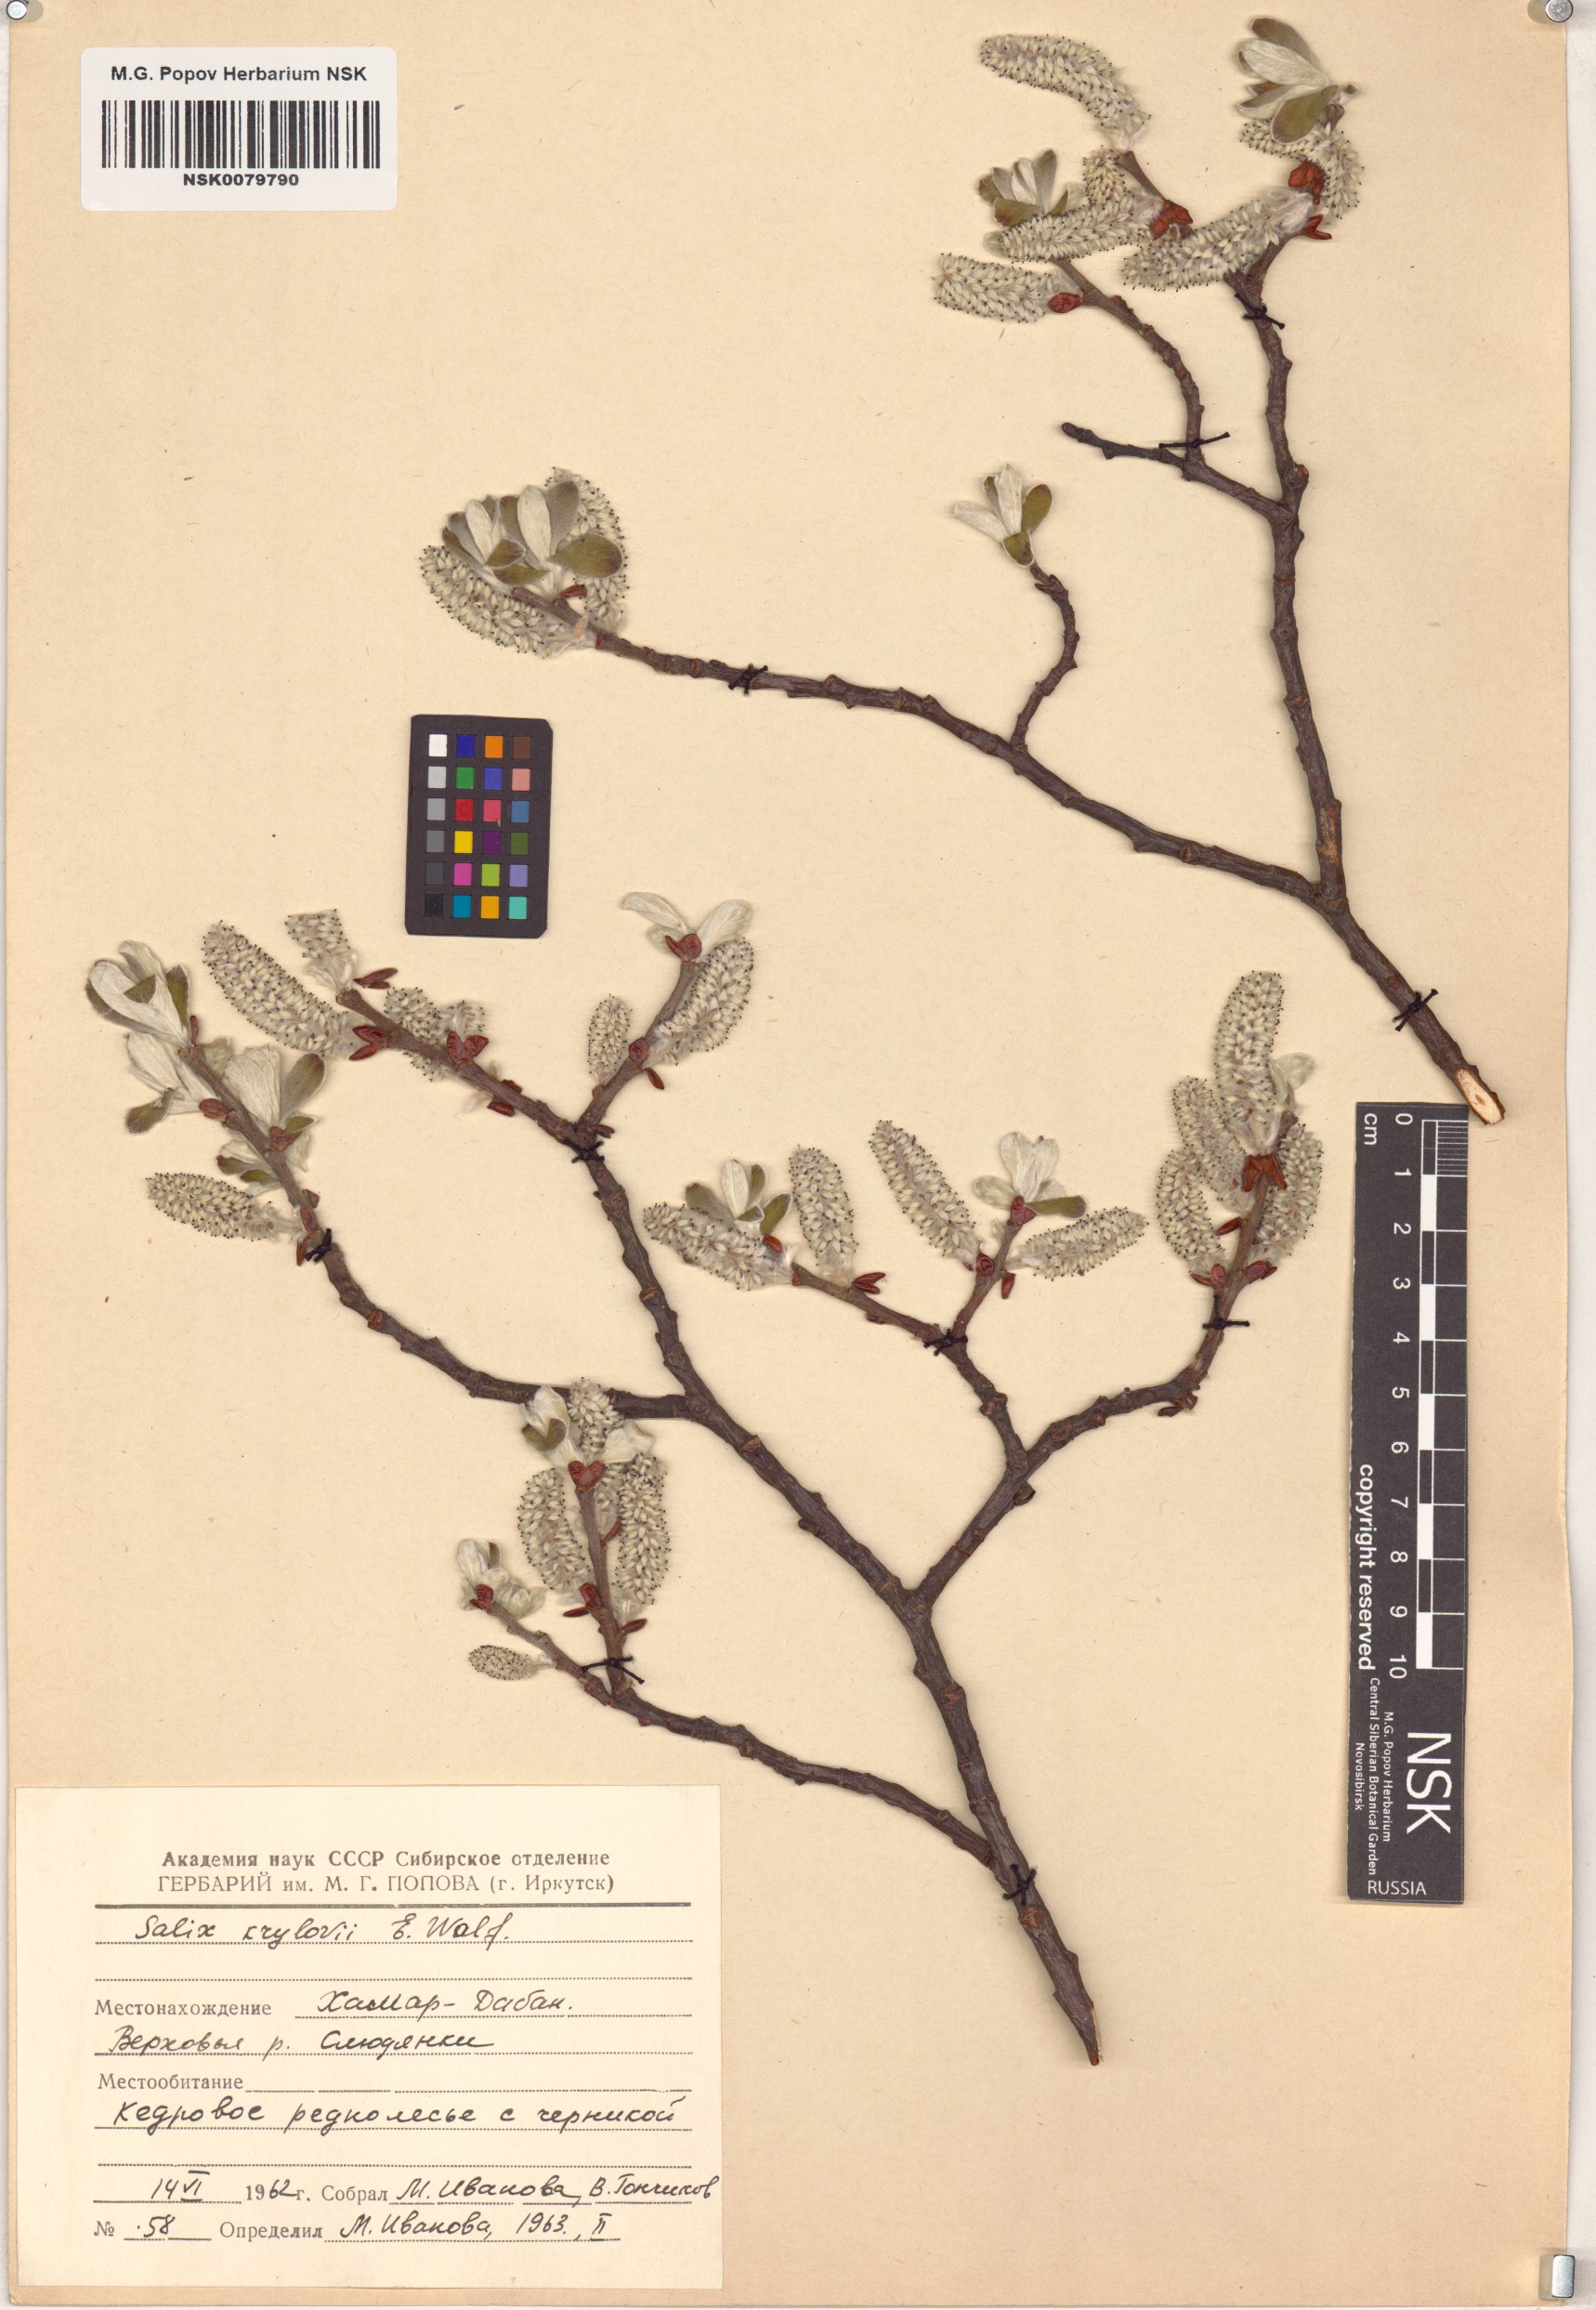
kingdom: Plantae
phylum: Tracheophyta
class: Magnoliopsida
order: Malpighiales
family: Salicaceae
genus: Salix
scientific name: Salix krylovii
